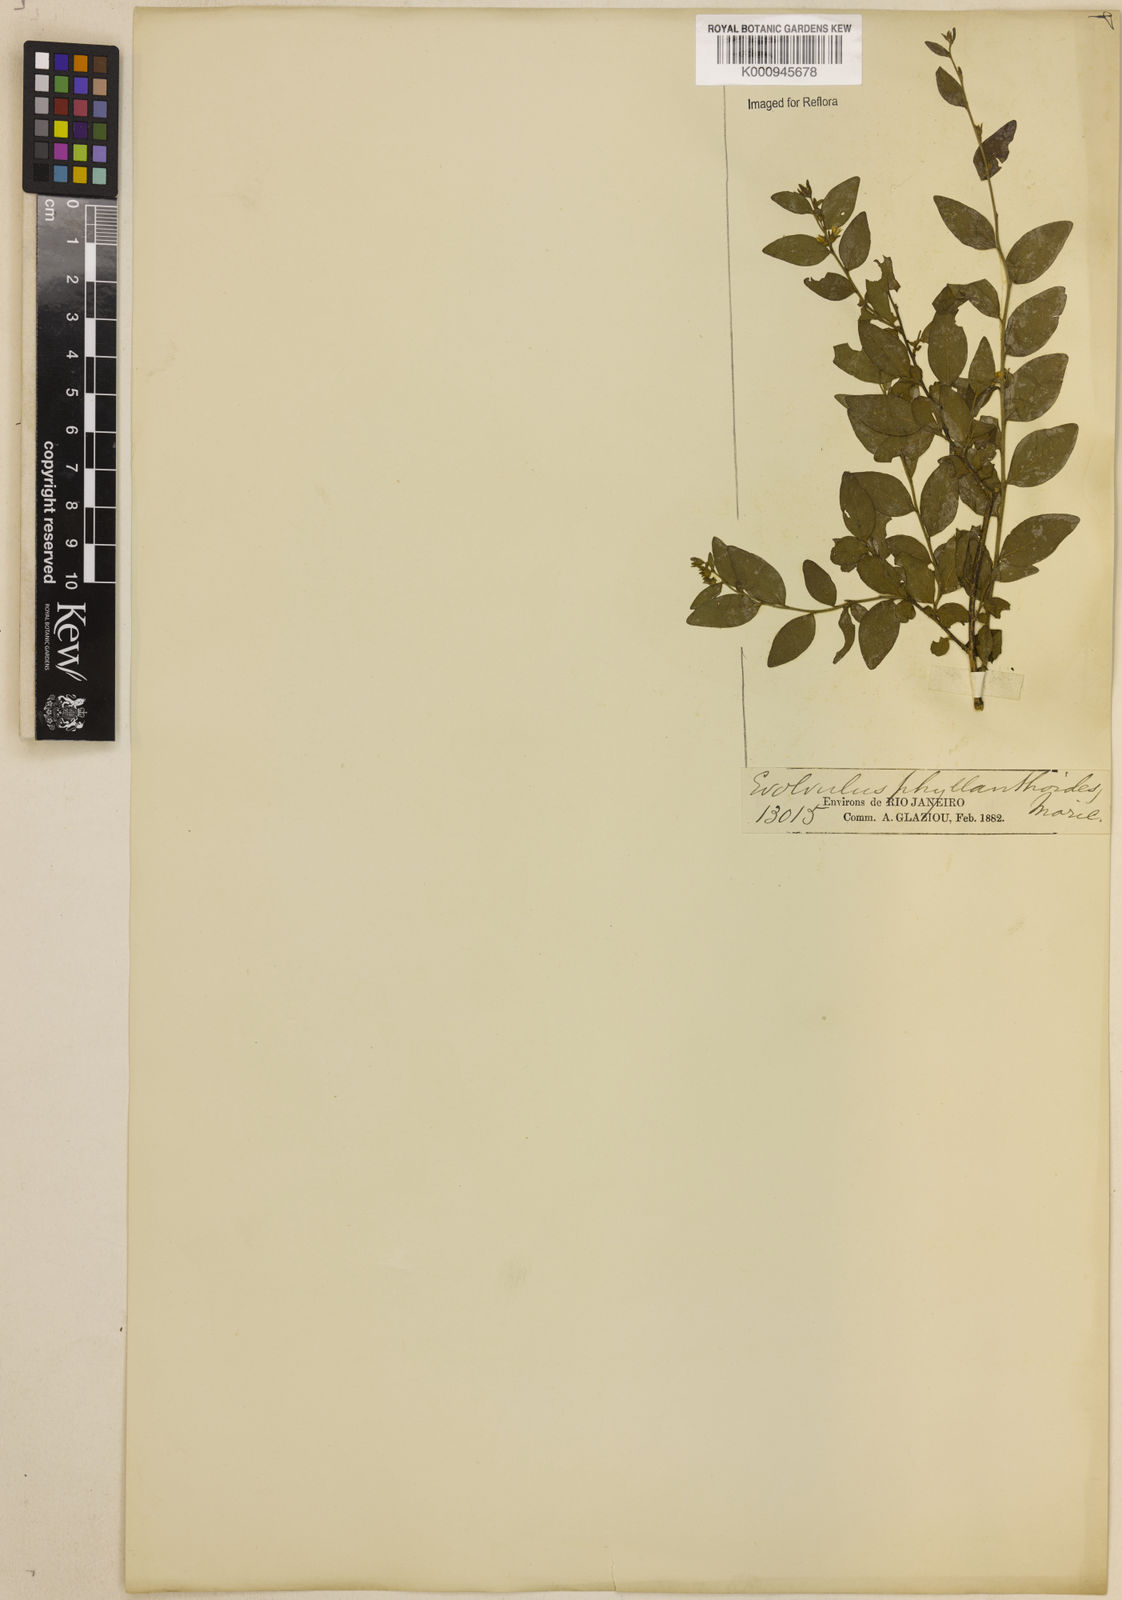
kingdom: Plantae
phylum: Tracheophyta
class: Magnoliopsida
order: Solanales
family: Convolvulaceae
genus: Evolvulus
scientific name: Evolvulus phyllanthoides
